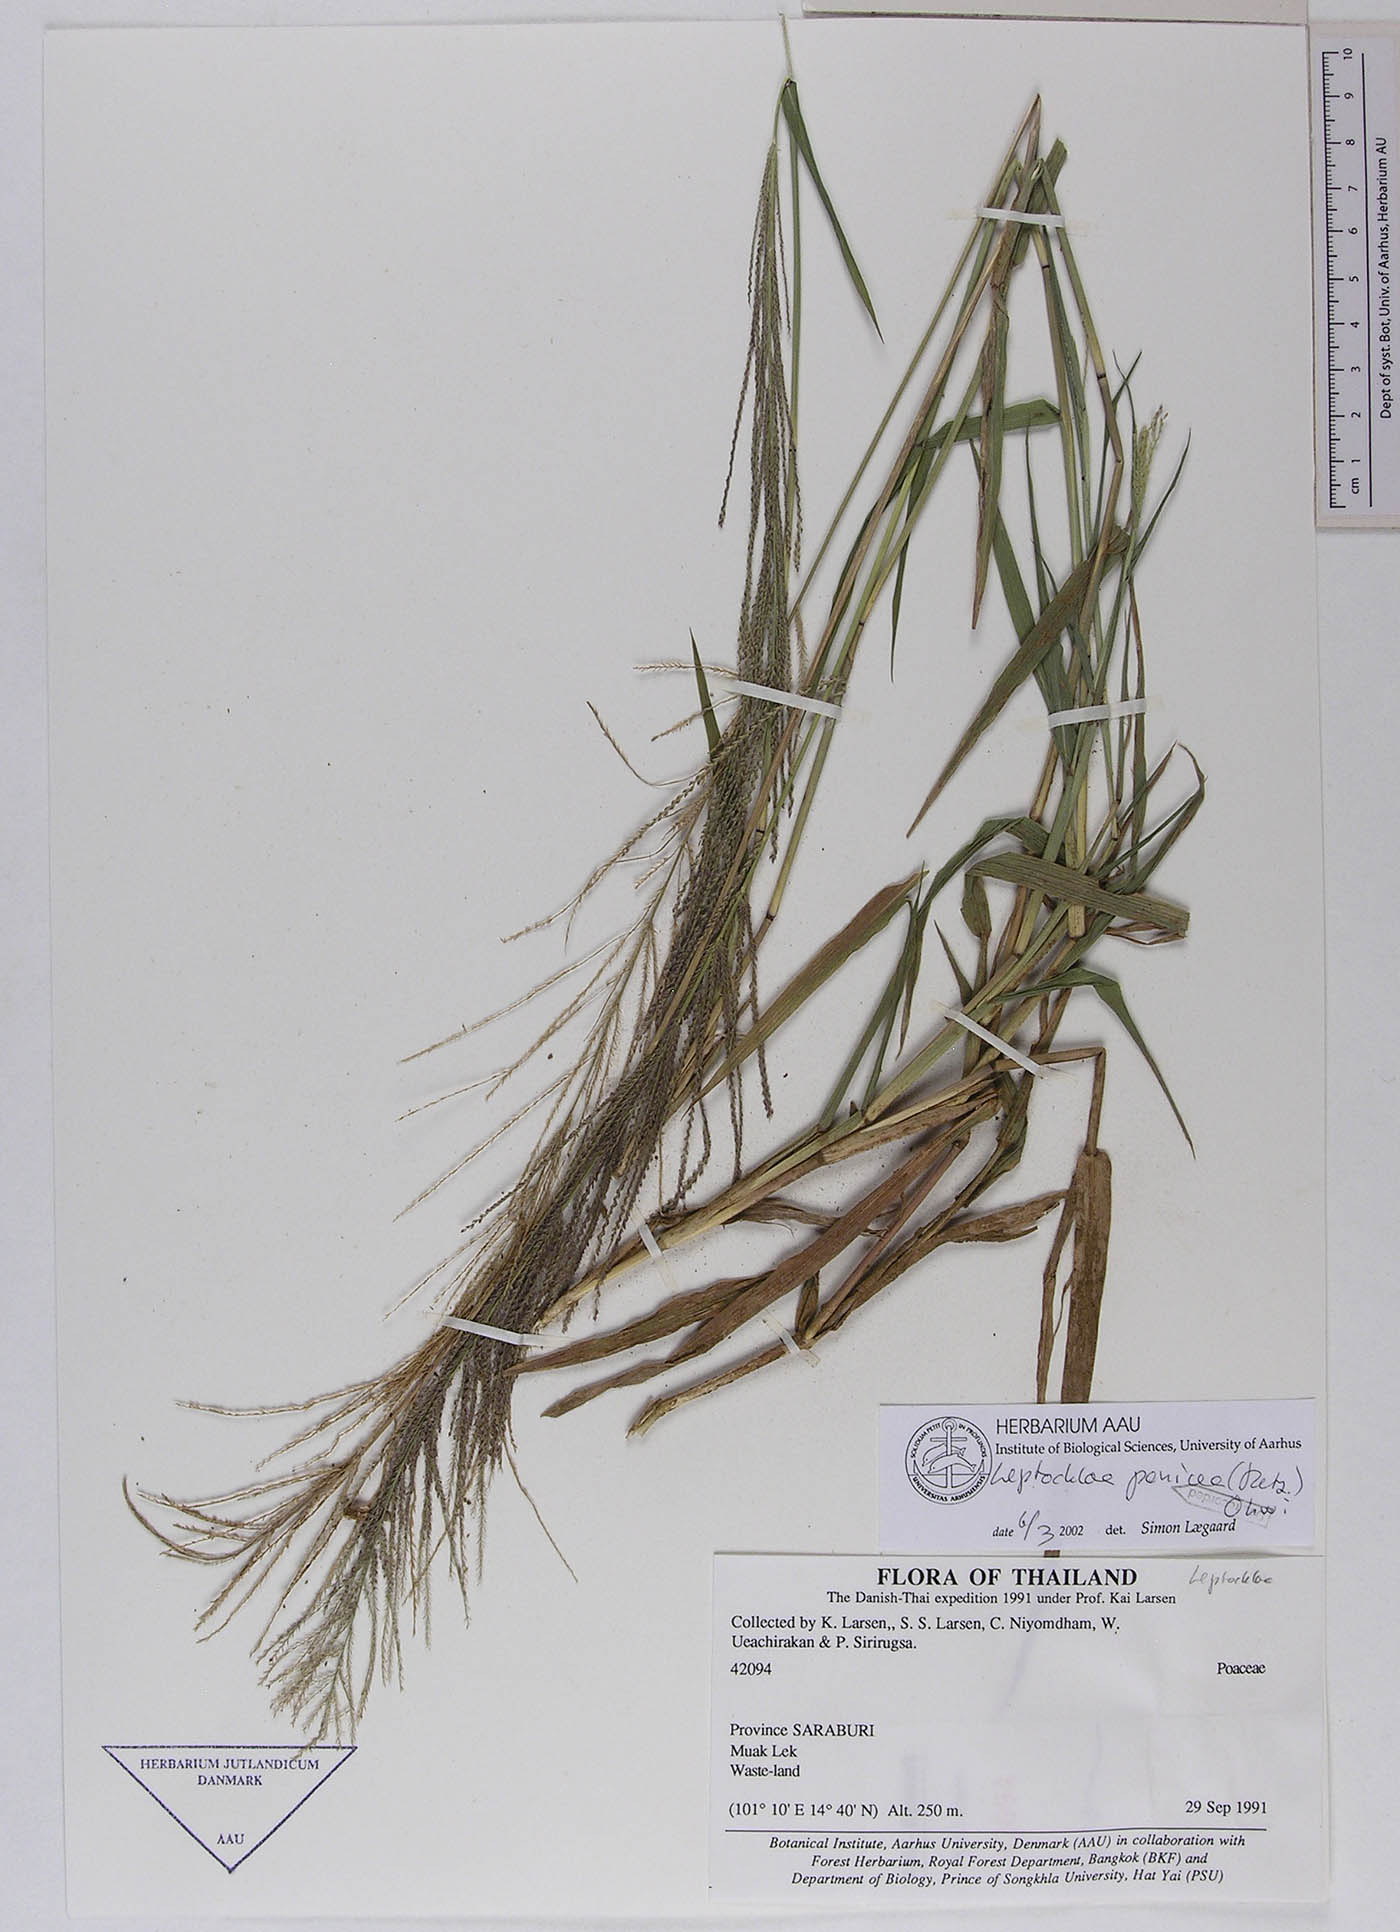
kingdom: Plantae
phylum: Tracheophyta
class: Liliopsida
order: Poales
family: Poaceae
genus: Leptochloa
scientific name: Leptochloa panicea
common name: Mucronate sprangletop
